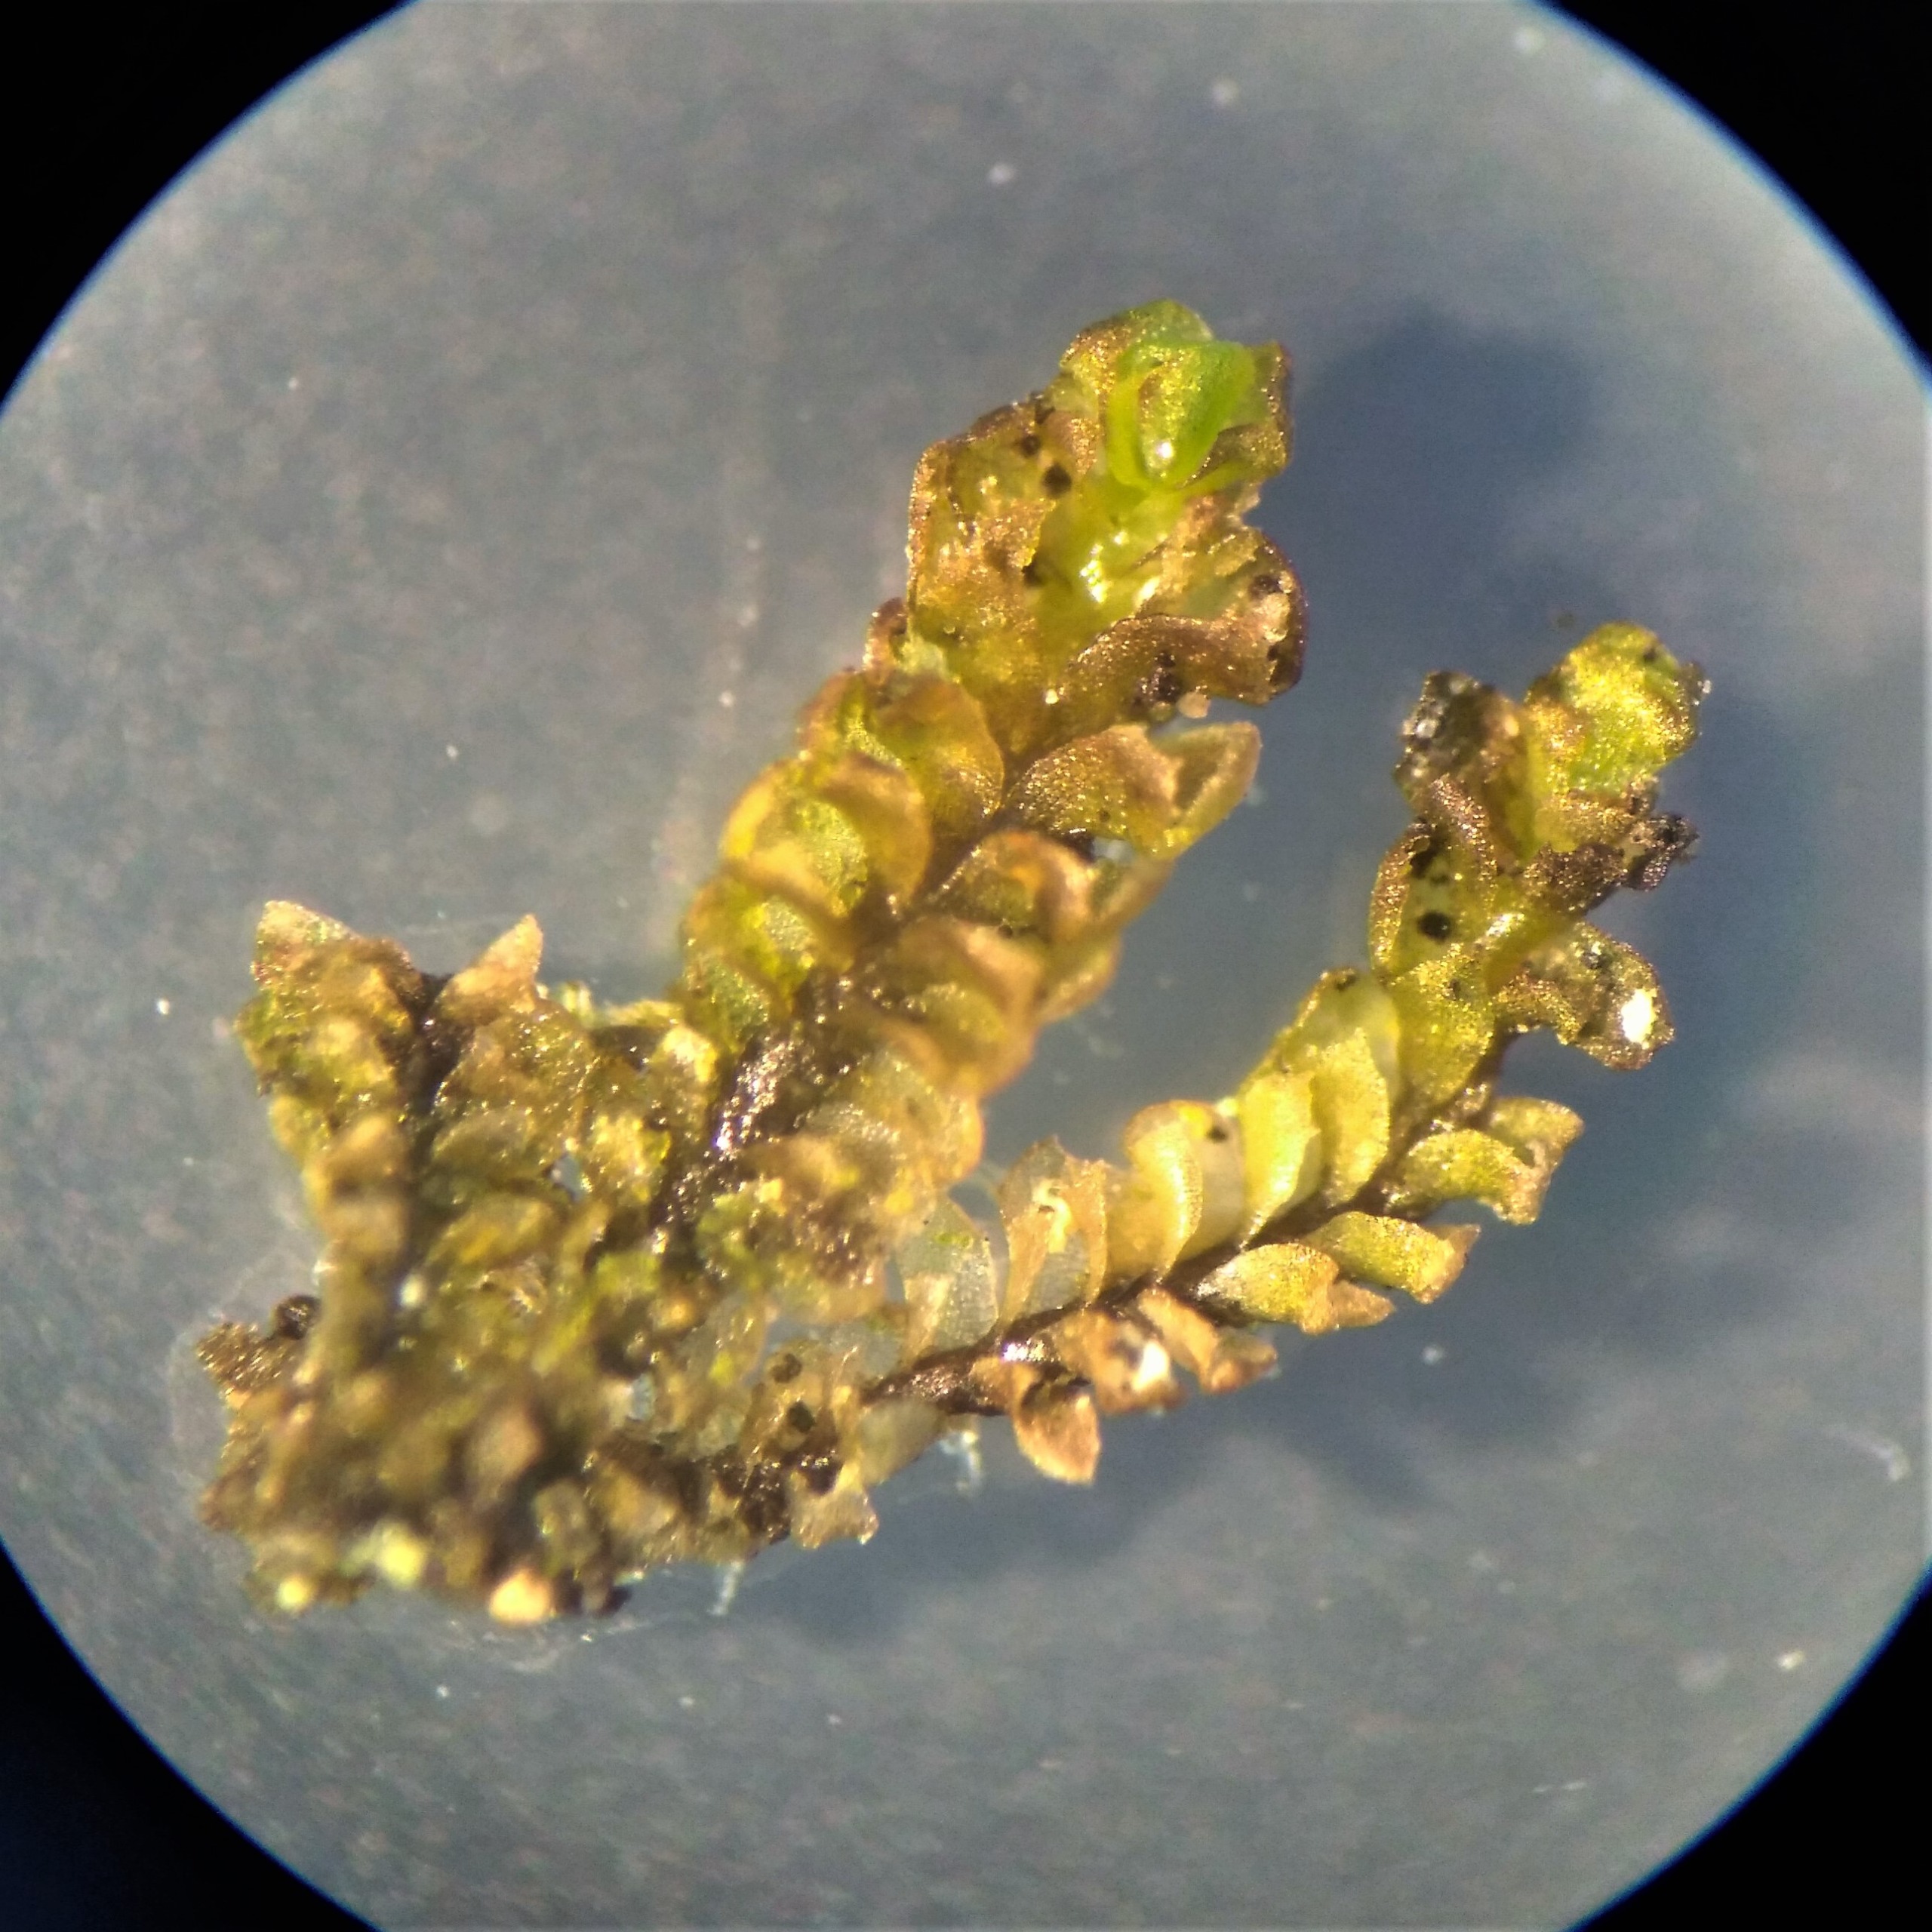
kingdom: Plantae
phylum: Marchantiophyta
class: Jungermanniopsida
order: Jungermanniales
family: Scapaniaceae
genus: Scapania
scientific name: Scapania lingulata
